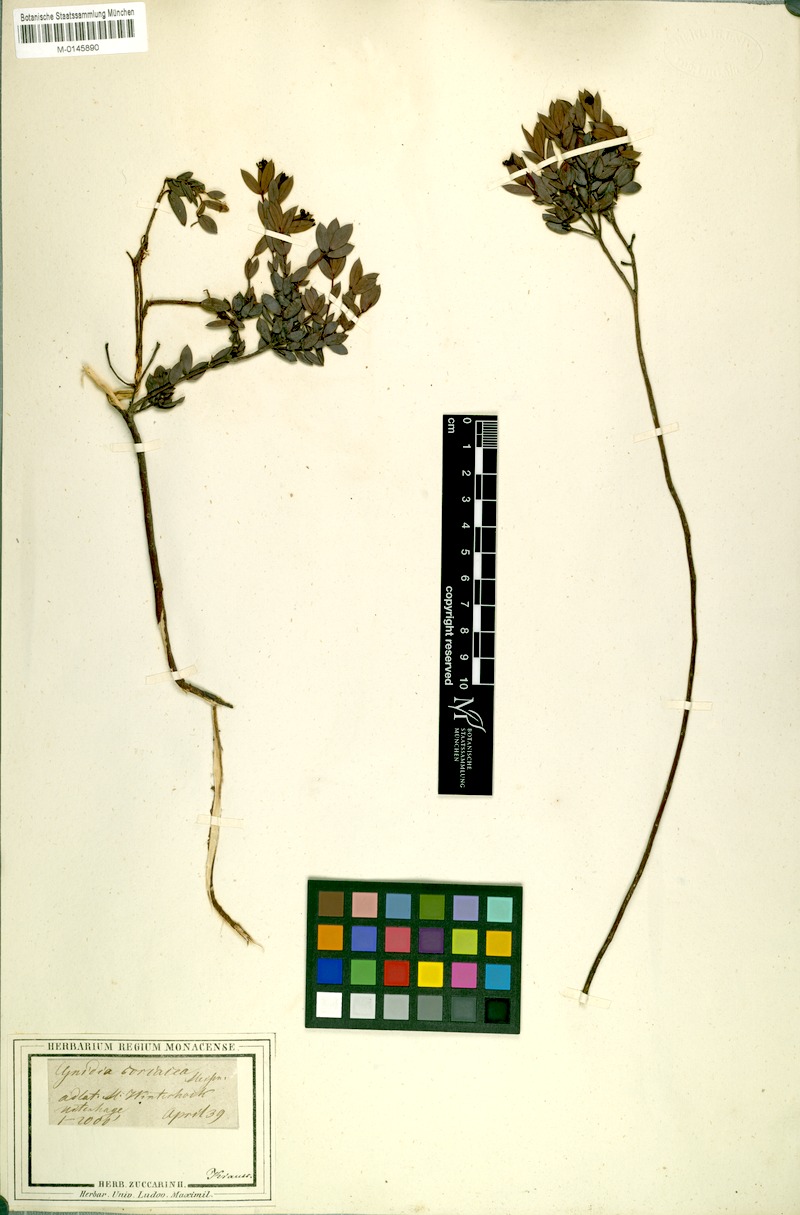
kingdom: Plantae
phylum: Tracheophyta
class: Magnoliopsida
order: Malvales
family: Thymelaeaceae
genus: Gnidia
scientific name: Gnidia coriacea
